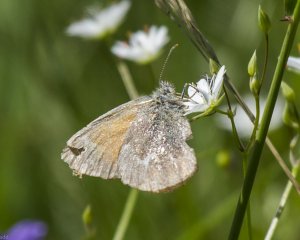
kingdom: Animalia
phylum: Arthropoda
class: Insecta
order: Lepidoptera
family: Nymphalidae
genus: Coenonympha
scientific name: Coenonympha tullia
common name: Large Heath
